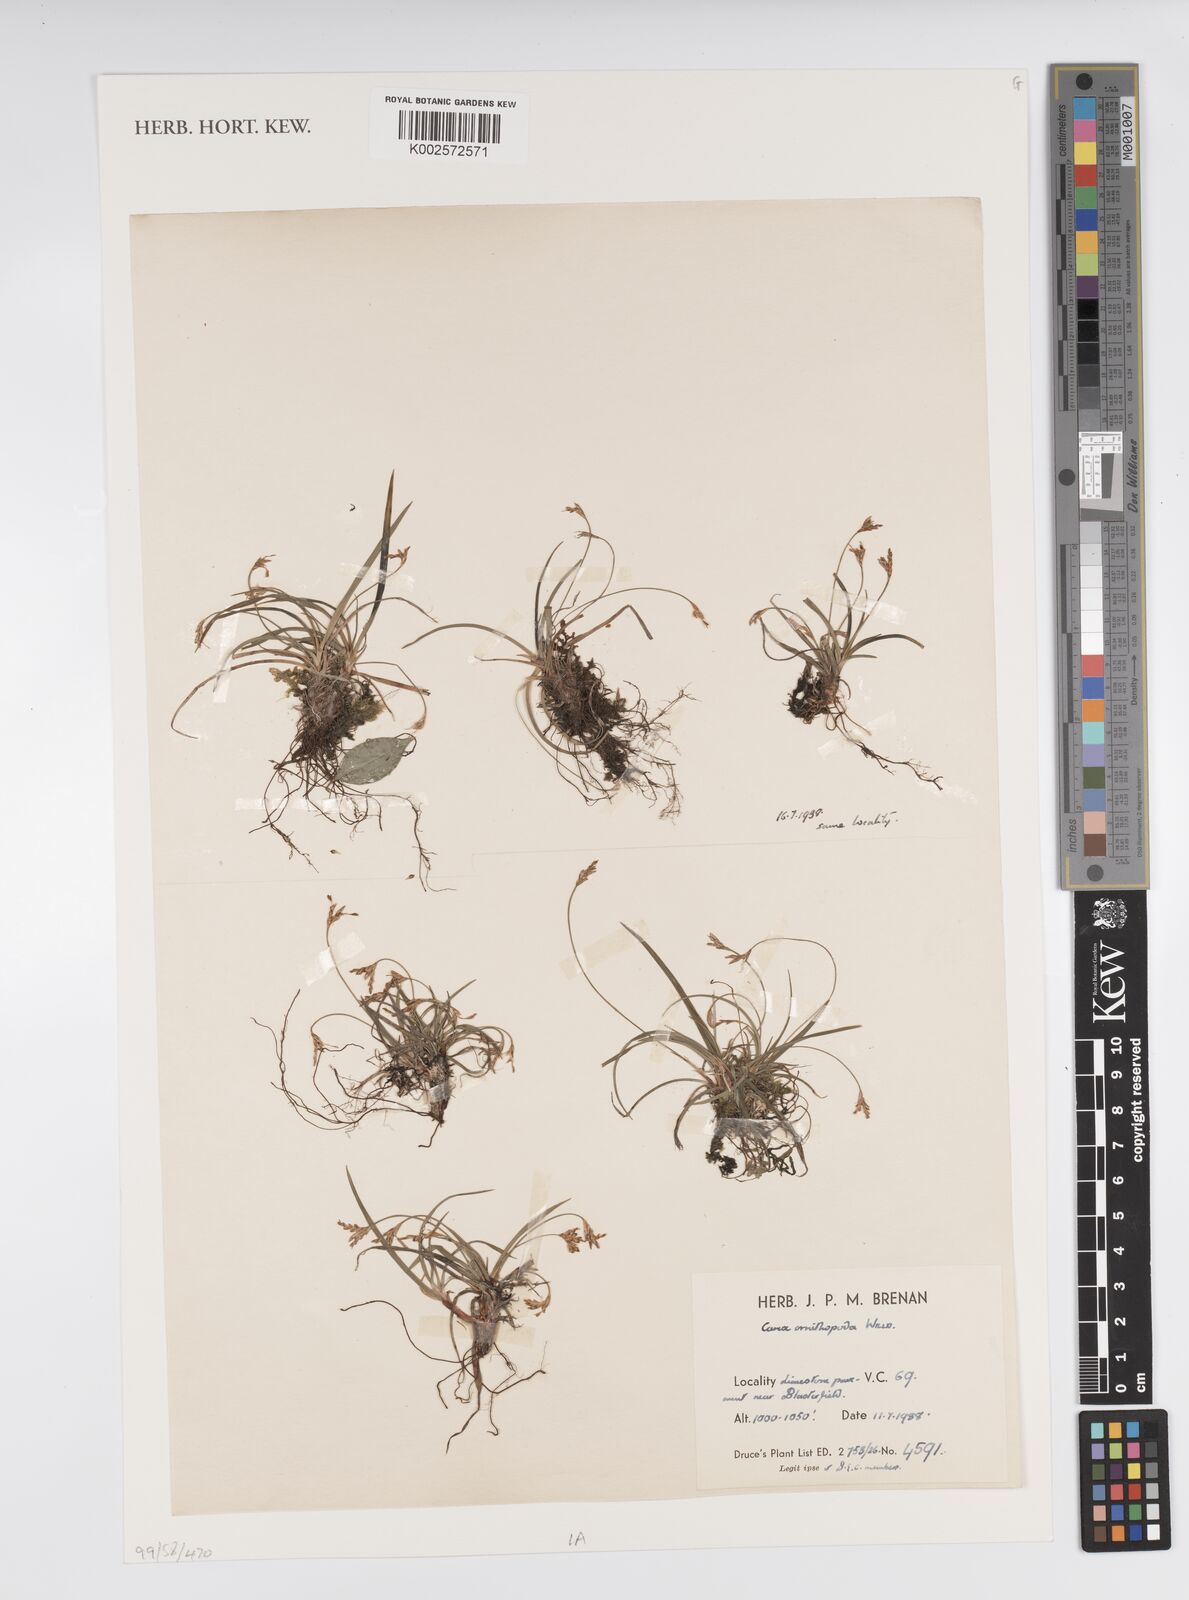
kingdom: Plantae
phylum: Tracheophyta
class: Liliopsida
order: Poales
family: Cyperaceae
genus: Carex
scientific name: Carex ornithopoda
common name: Bird's-foot sedge
